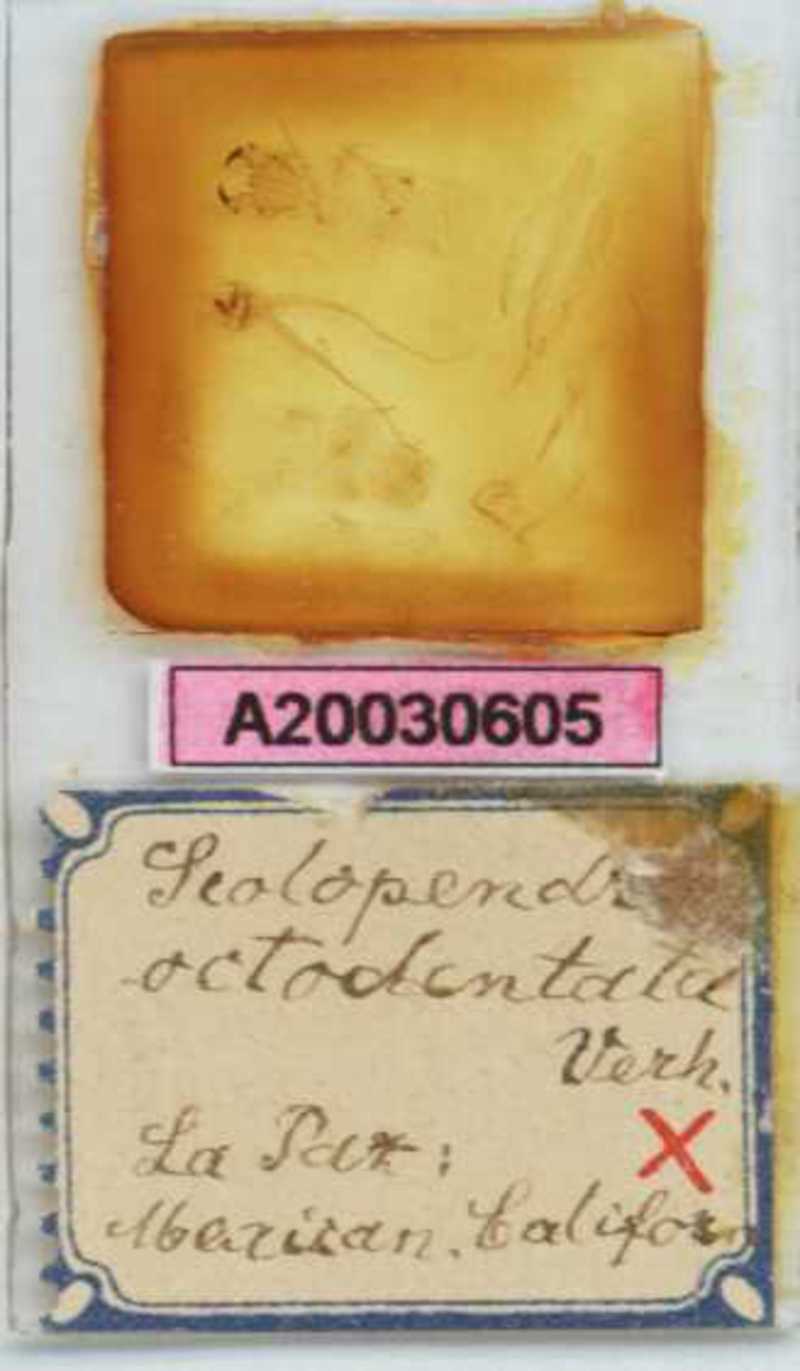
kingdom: Animalia
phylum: Arthropoda
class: Chilopoda
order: Scolopendromorpha
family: Scolopendridae
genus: Scolopendra
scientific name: Scolopendra octodentata
